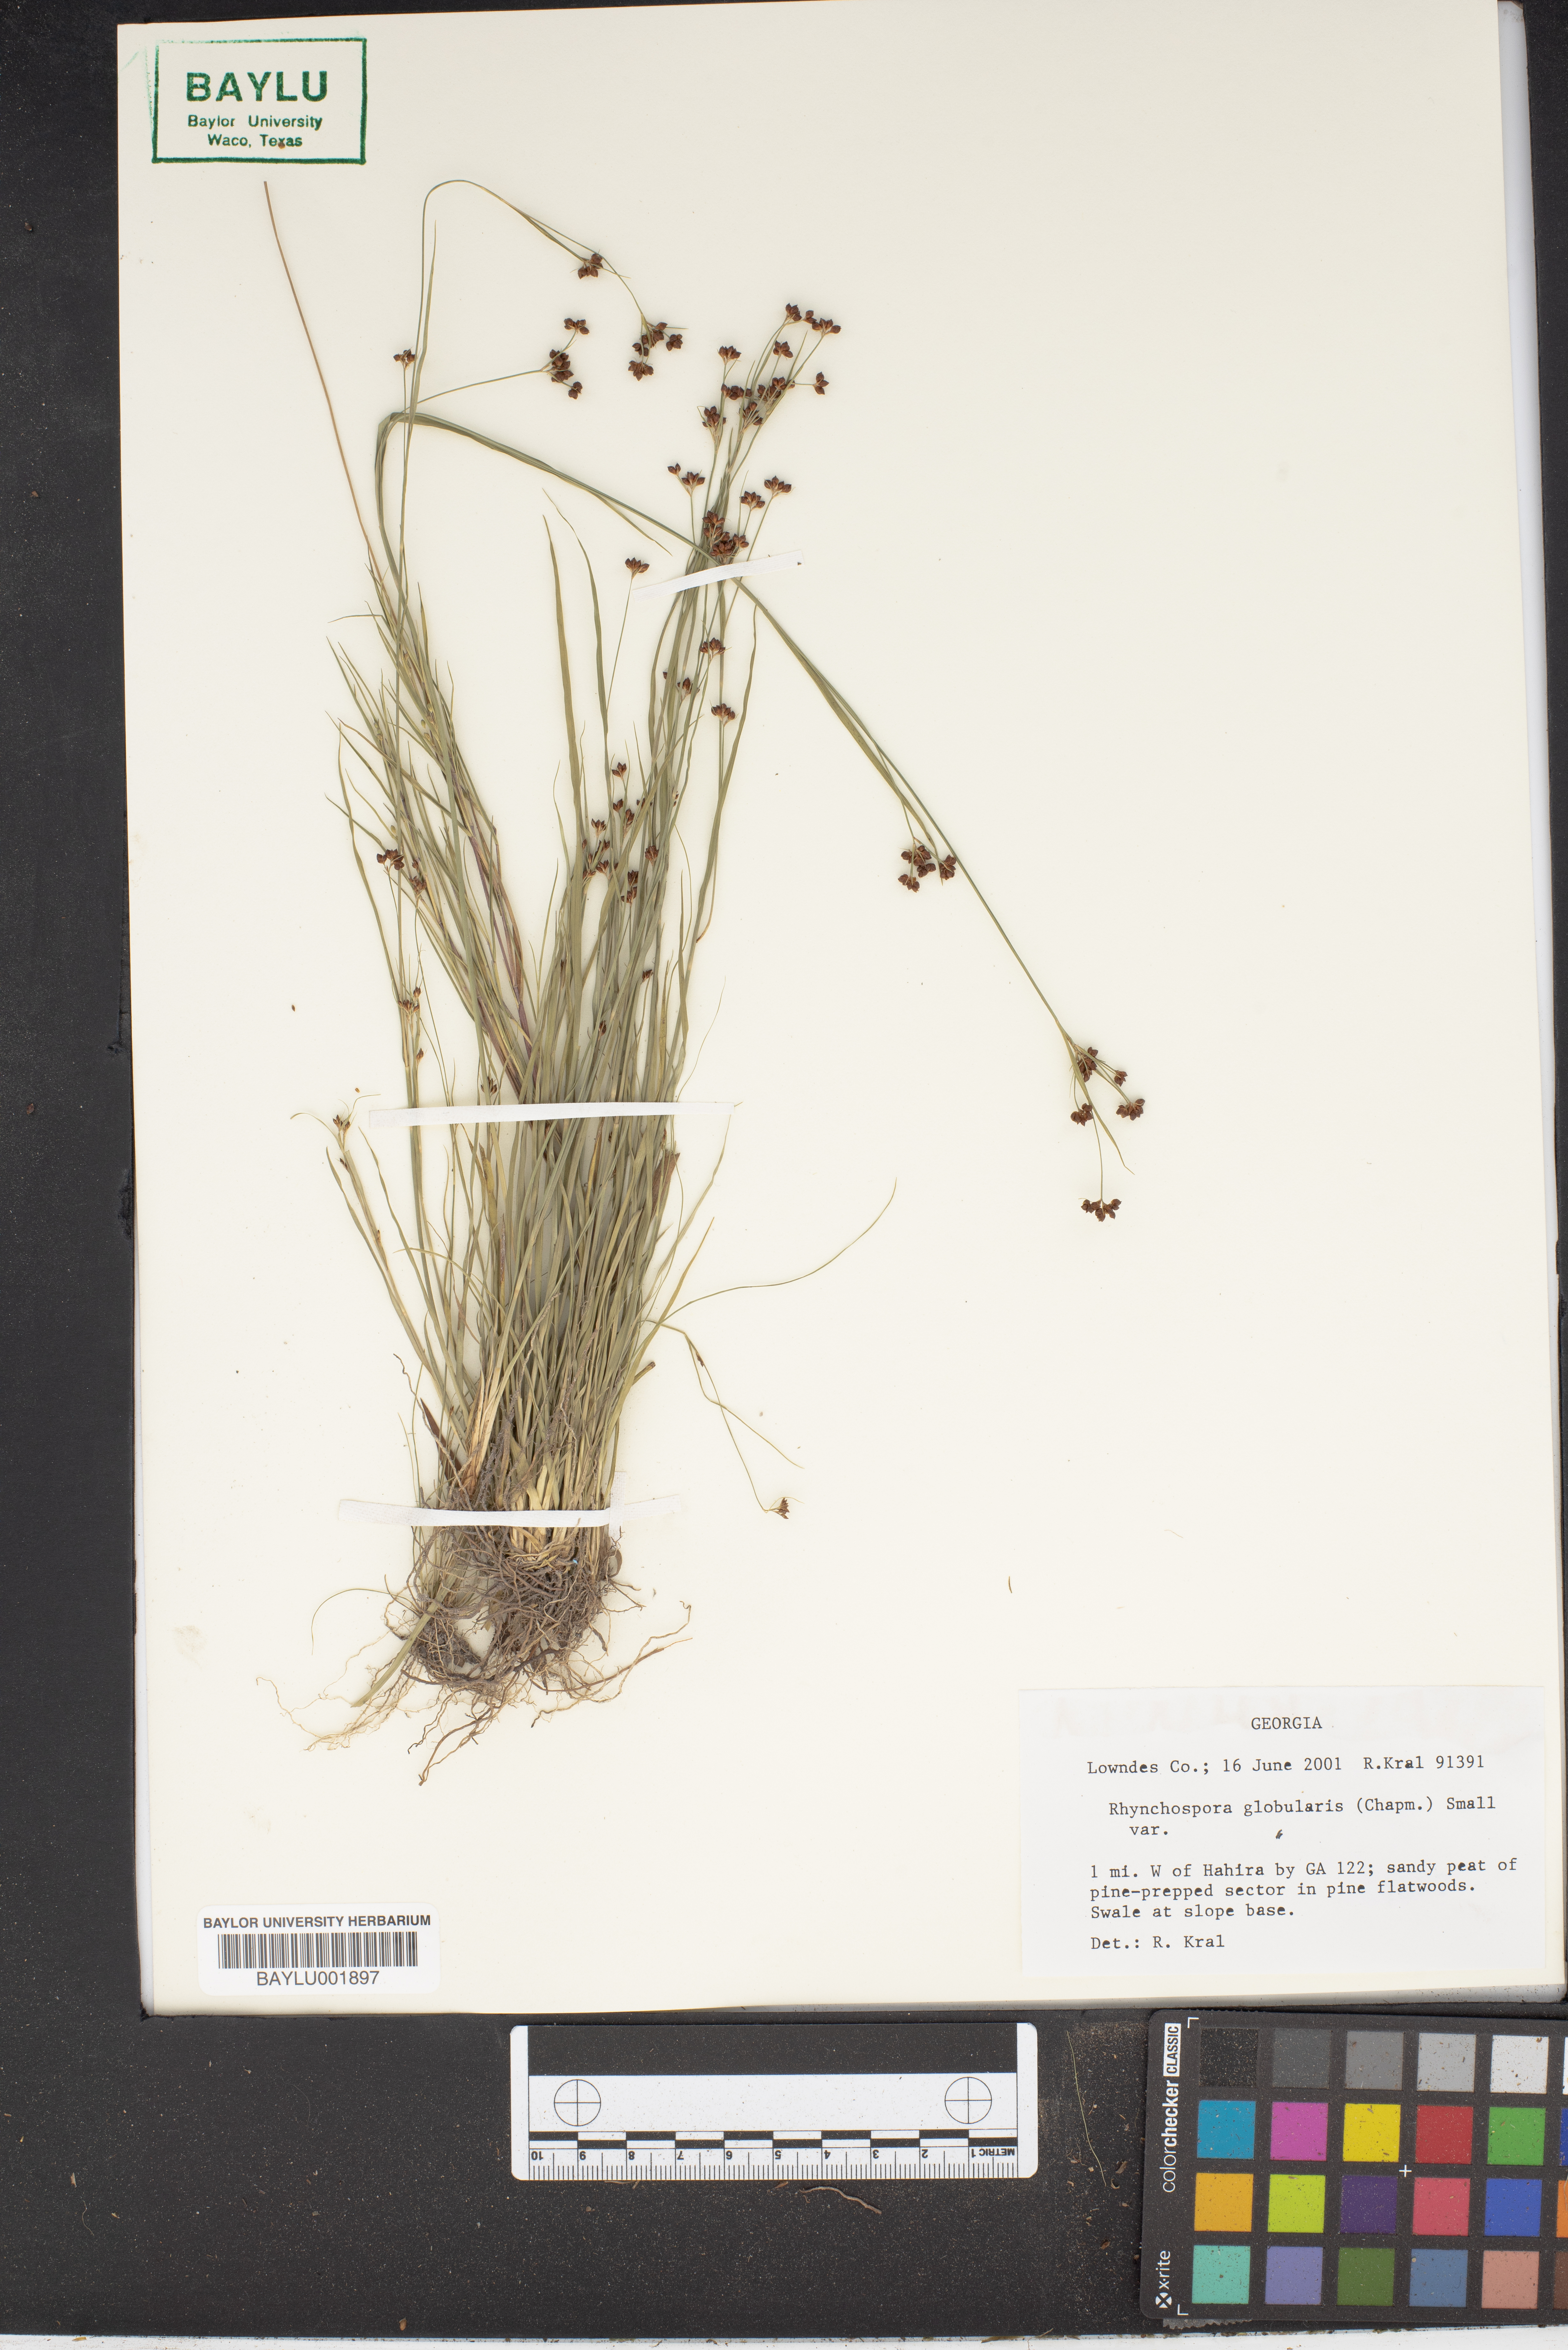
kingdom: Plantae
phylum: Tracheophyta
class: Liliopsida
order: Poales
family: Cyperaceae
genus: Rhynchospora
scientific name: Rhynchospora globularis
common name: Globe beaksedge
